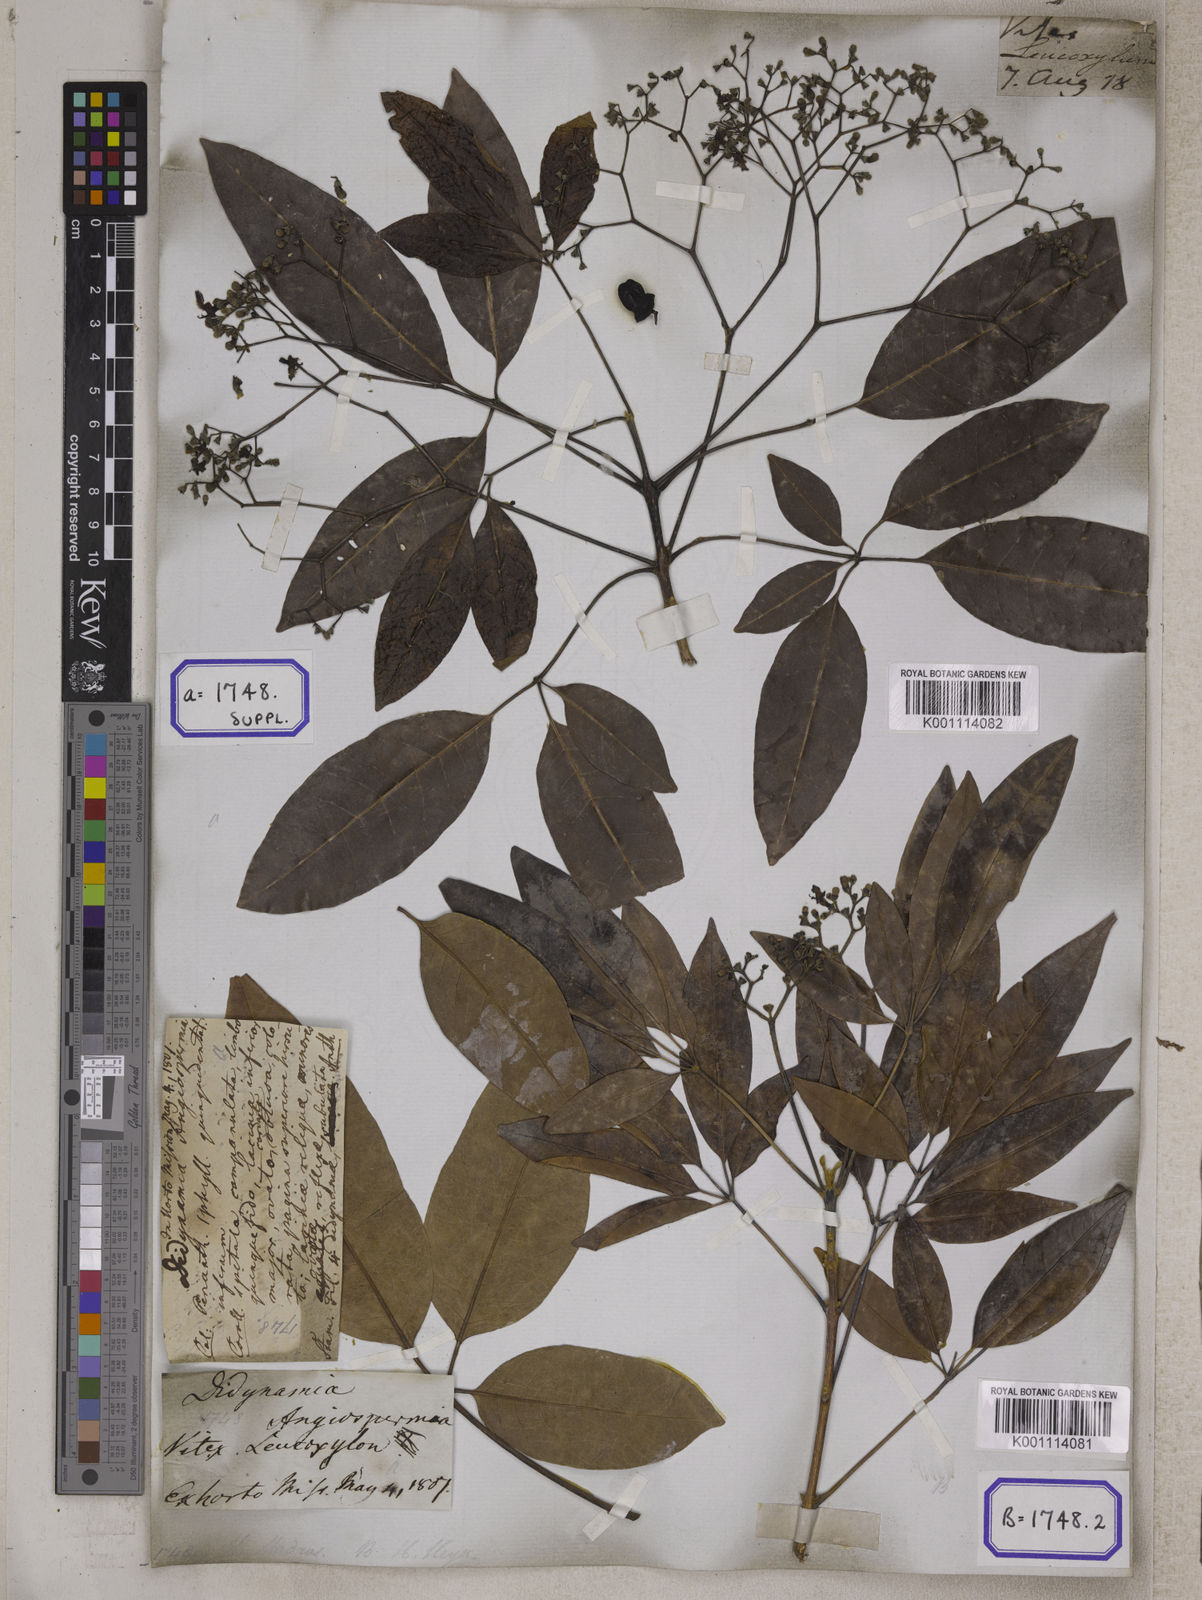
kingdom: Plantae
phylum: Tracheophyta
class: Magnoliopsida
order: Lamiales
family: Lamiaceae
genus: Vitex
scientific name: Vitex leucoxylon
